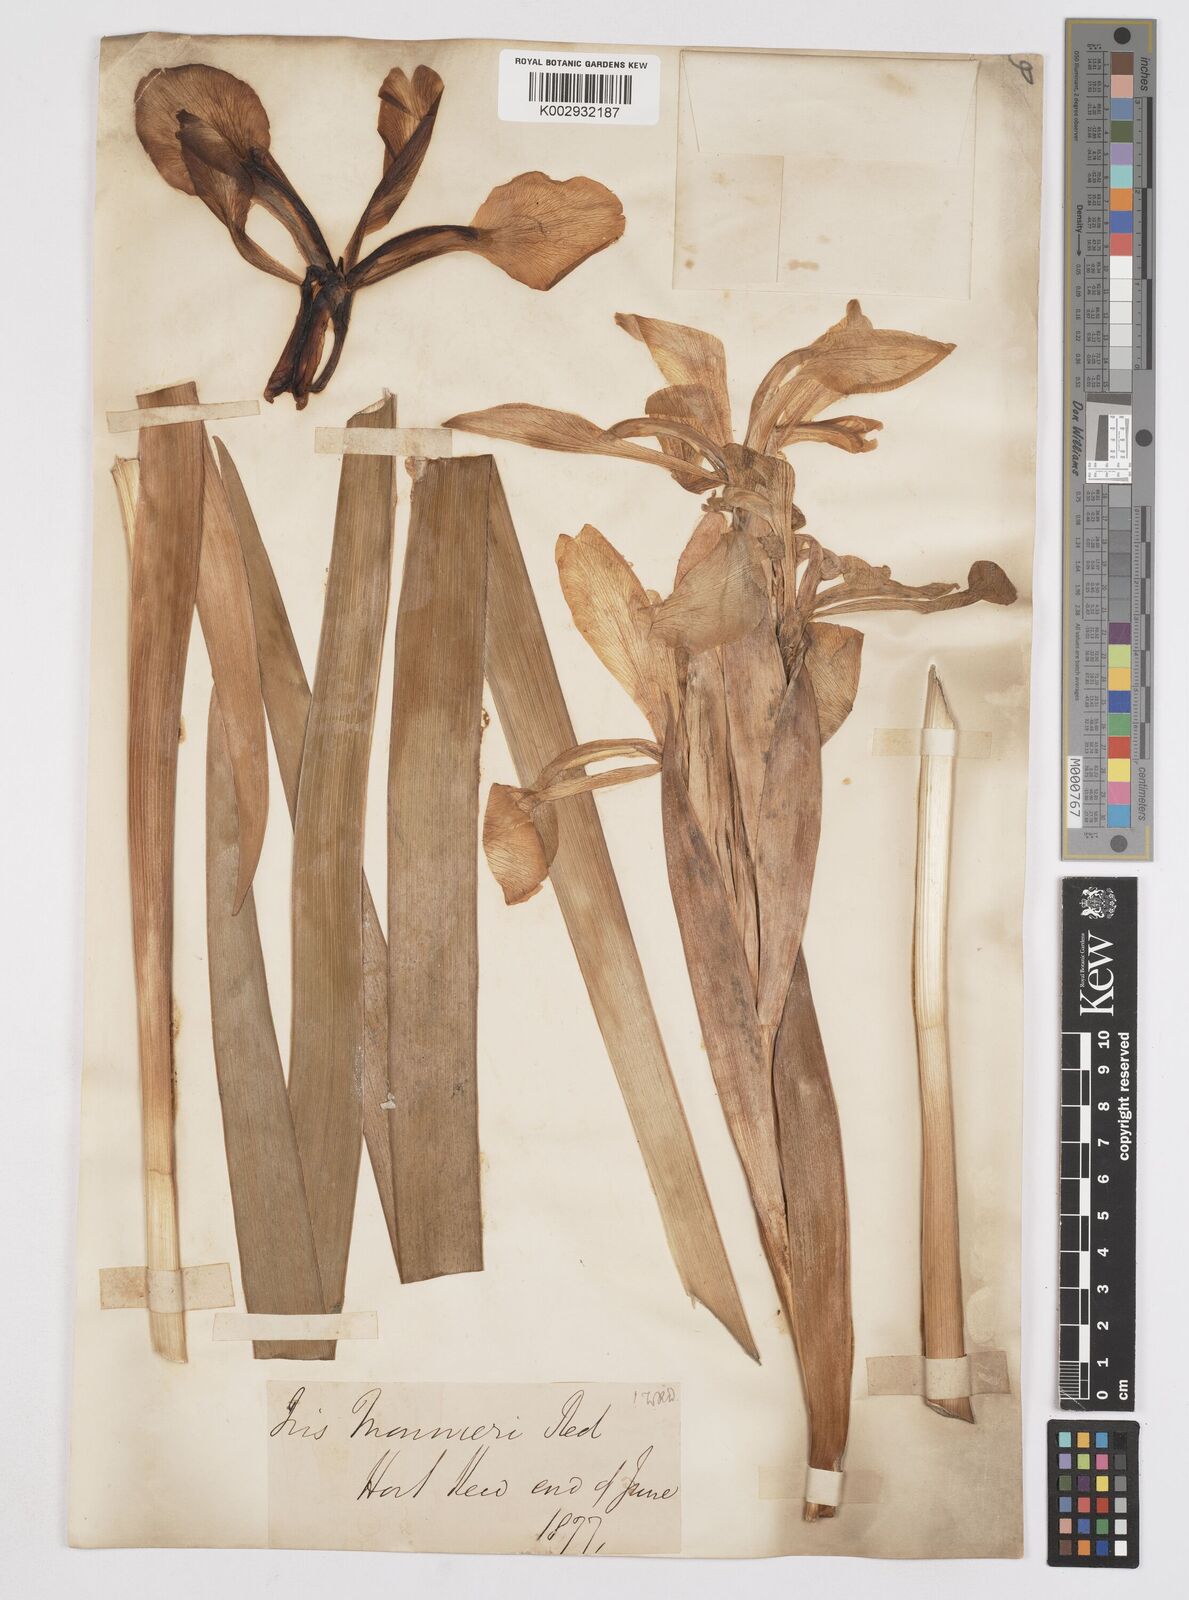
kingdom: Plantae
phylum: Tracheophyta
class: Liliopsida
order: Asparagales
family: Iridaceae
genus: Iris
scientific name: Iris orientalis
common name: Turkish iris
